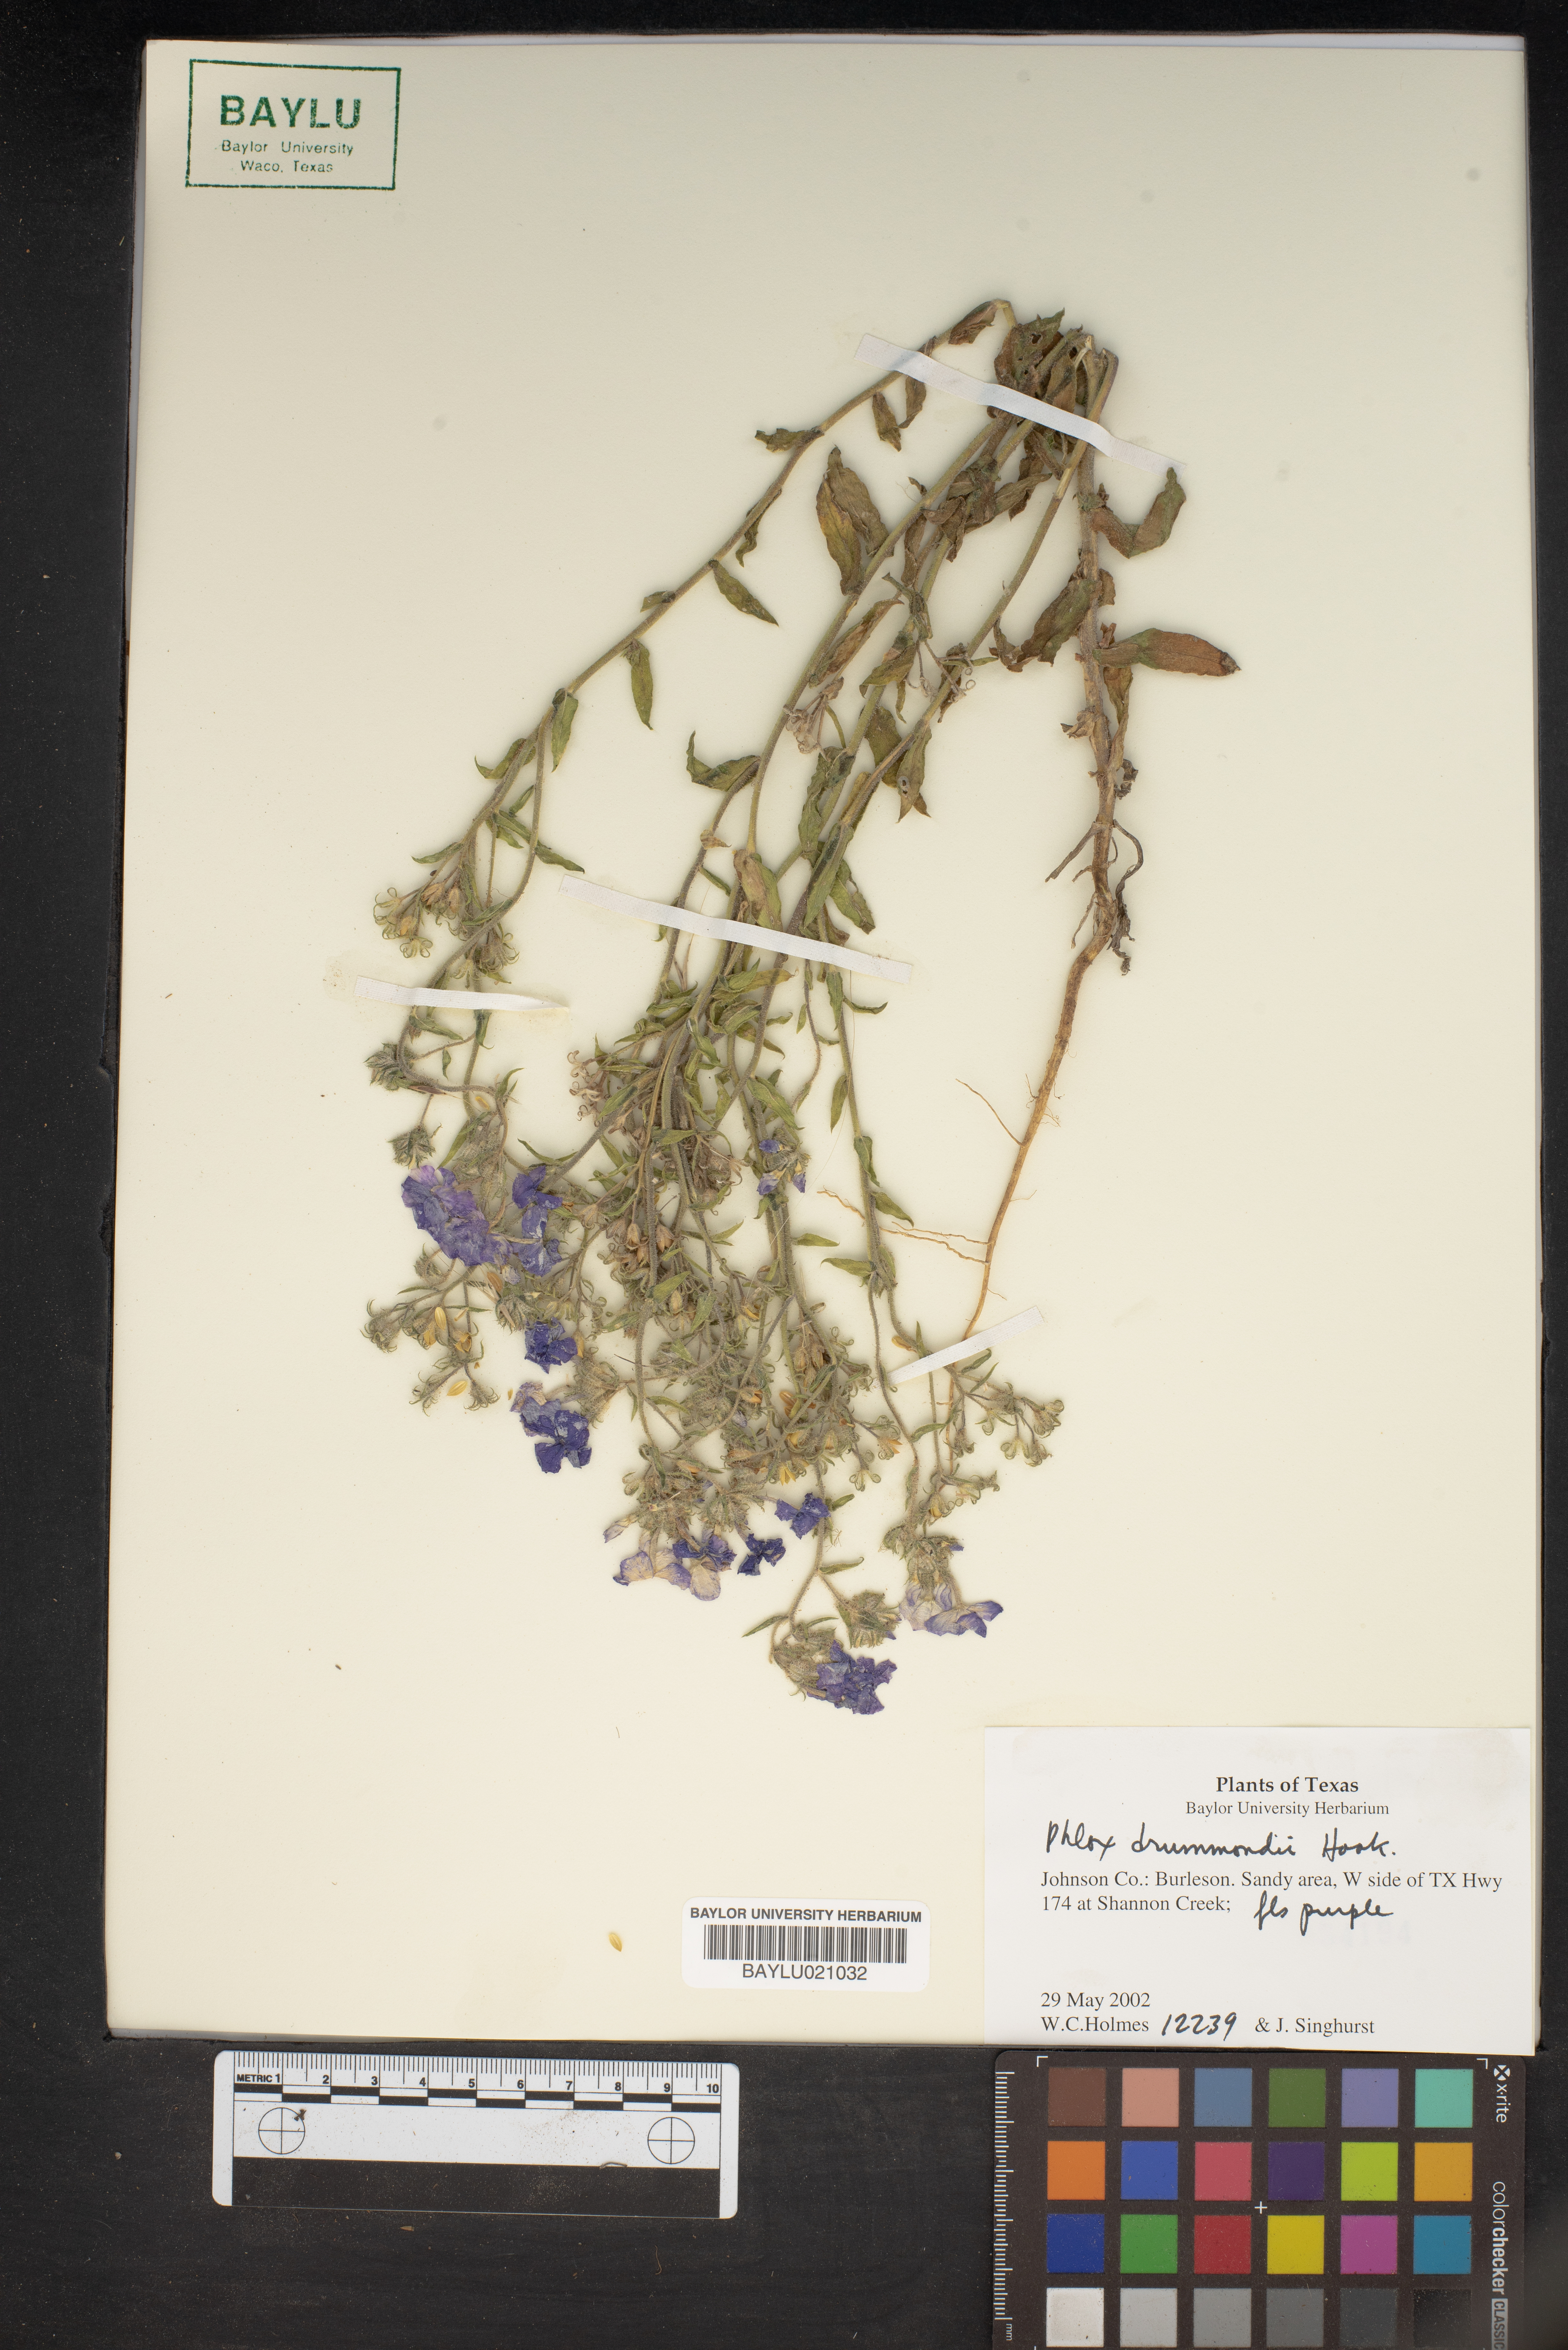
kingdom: Plantae
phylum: Tracheophyta
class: Magnoliopsida
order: Ericales
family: Polemoniaceae
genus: Phlox
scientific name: Phlox drummondii
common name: Drummond's phlox
